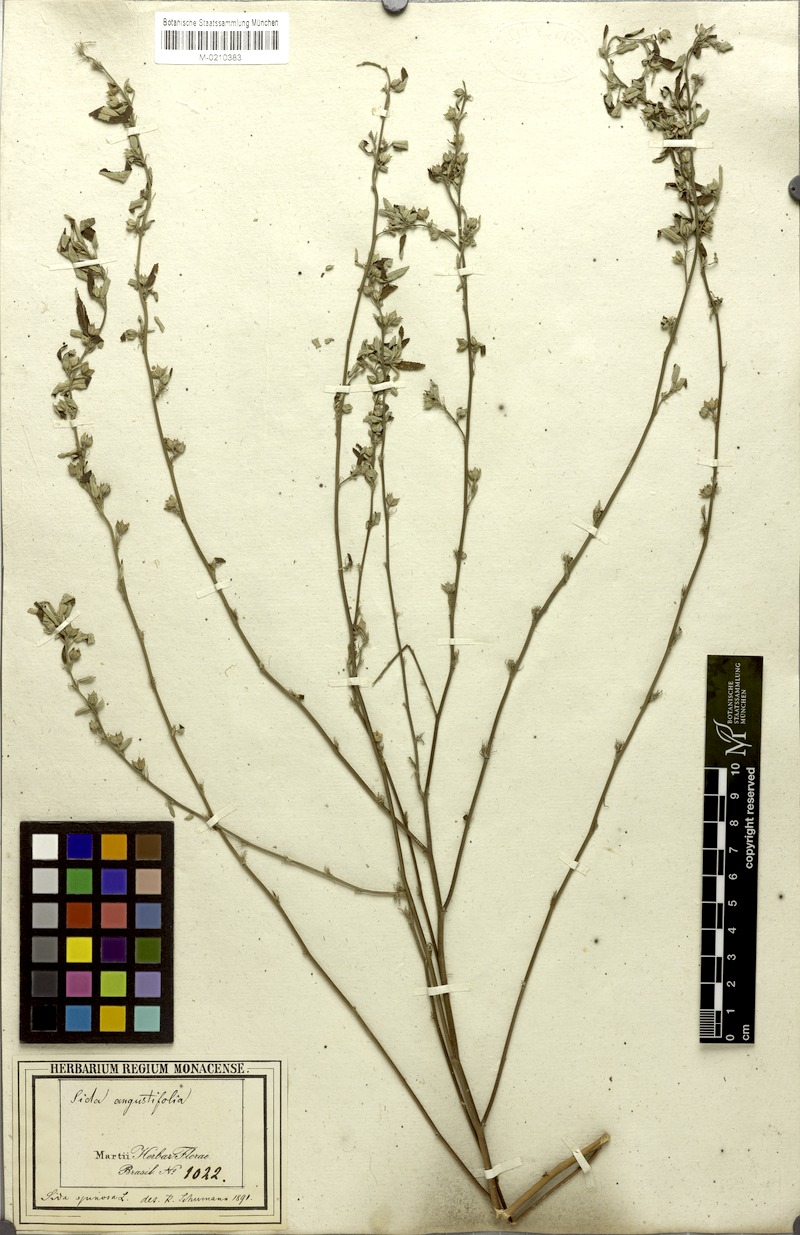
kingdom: Plantae
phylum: Tracheophyta
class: Magnoliopsida
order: Malvales
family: Malvaceae
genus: Sida
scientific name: Sida spinosa
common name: Prickly fanpetals
